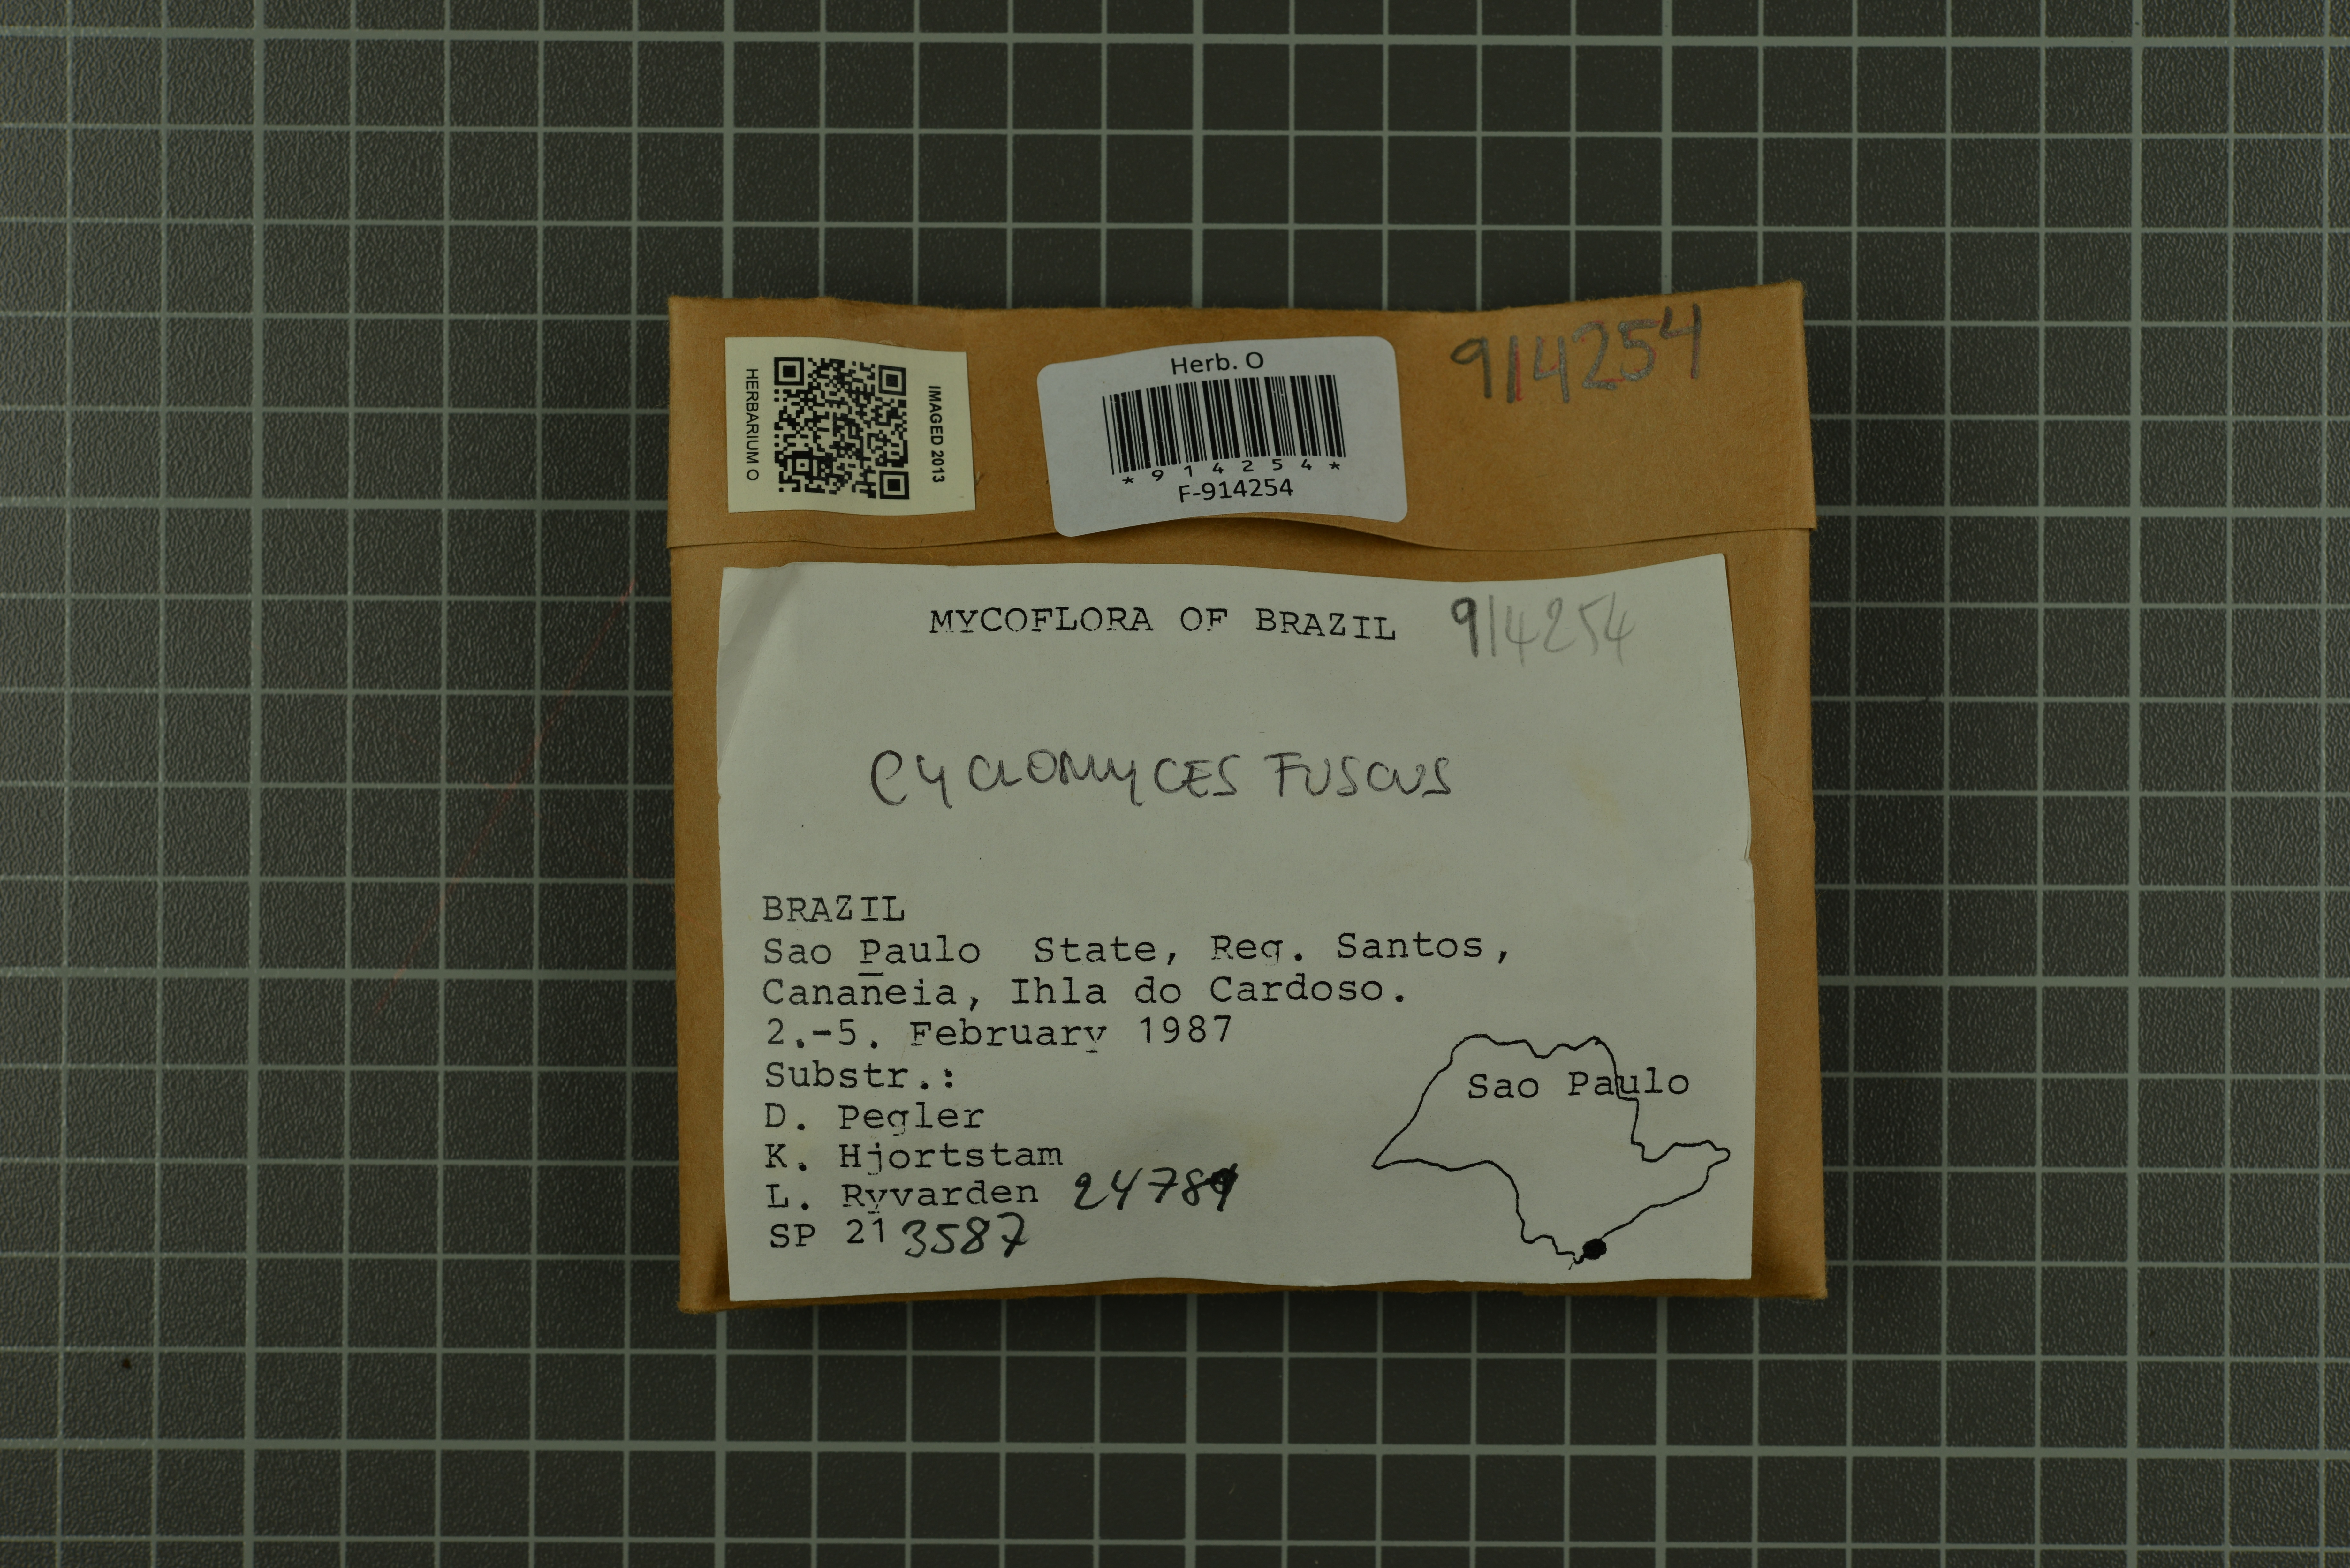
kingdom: Fungi
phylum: Basidiomycota
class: Agaricomycetes
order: Hymenochaetales
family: Hymenochaetaceae
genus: Hymenochaete
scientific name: Hymenochaete cyclolamellata
